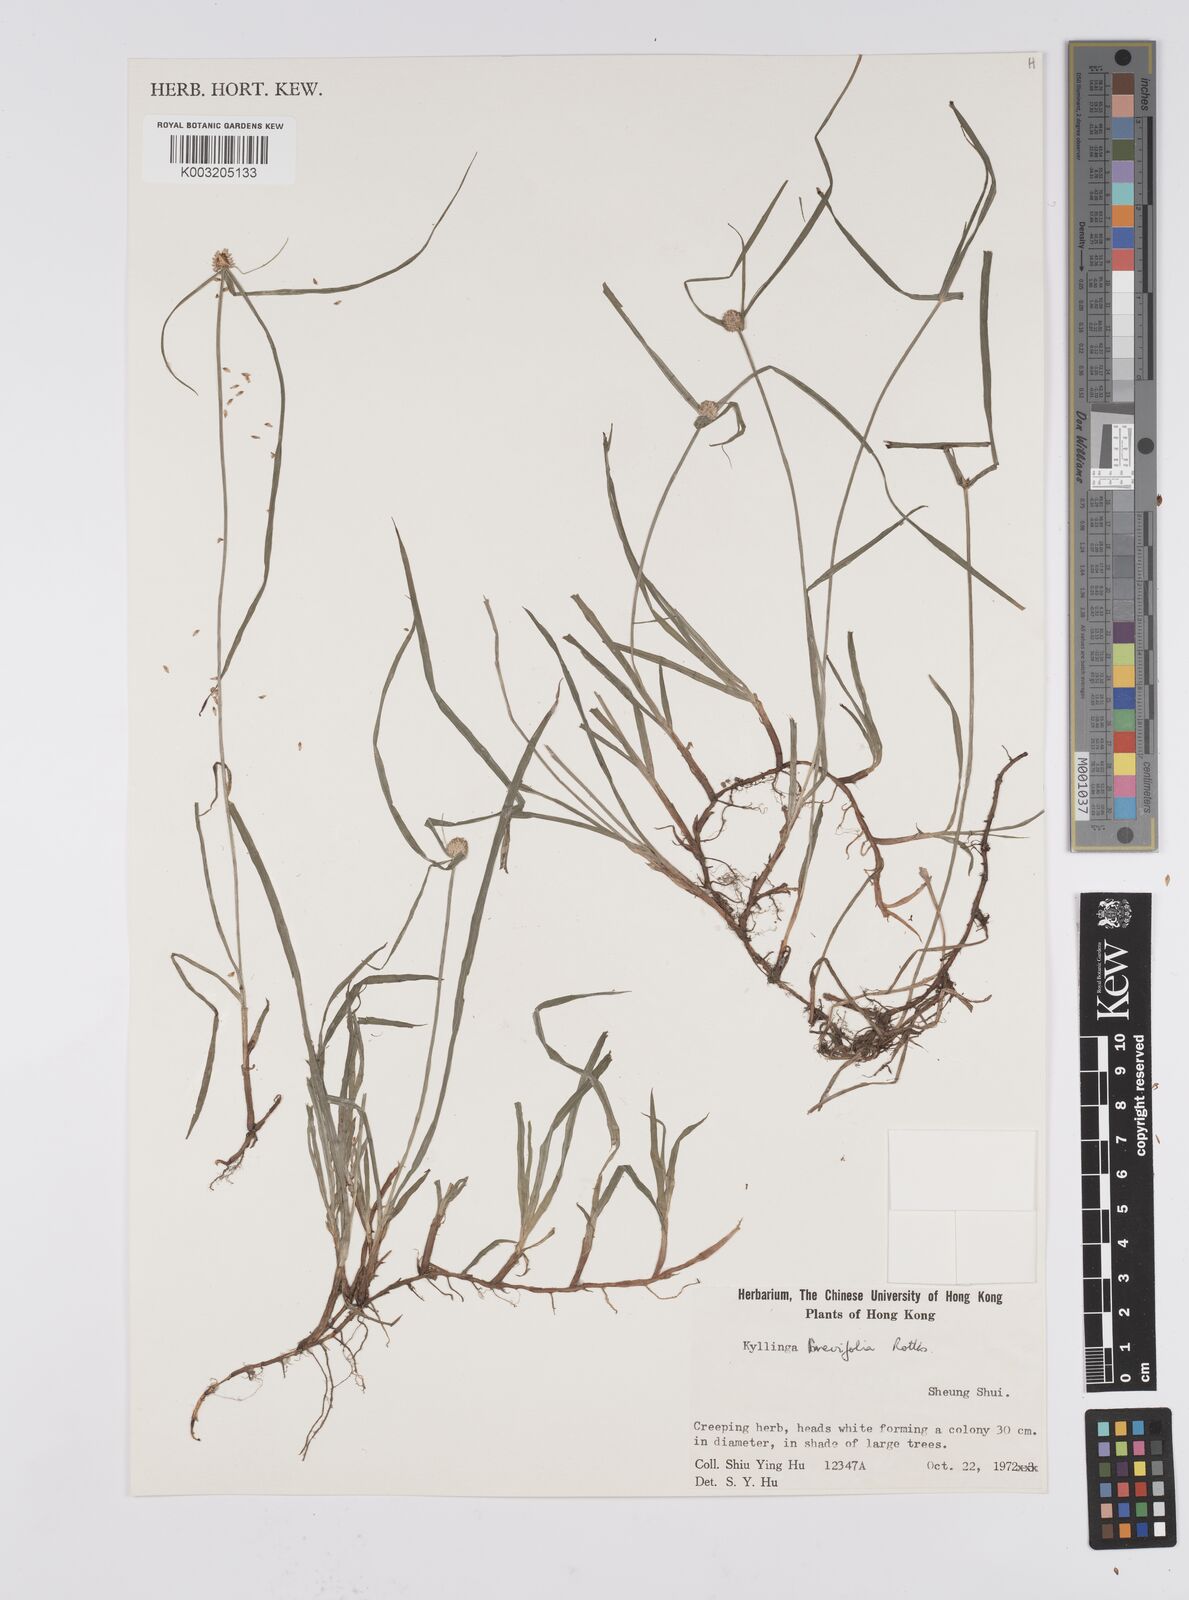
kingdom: Plantae
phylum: Tracheophyta
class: Liliopsida
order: Poales
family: Cyperaceae
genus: Cyperus
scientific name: Cyperus brevifolius
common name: Globe kyllinga
